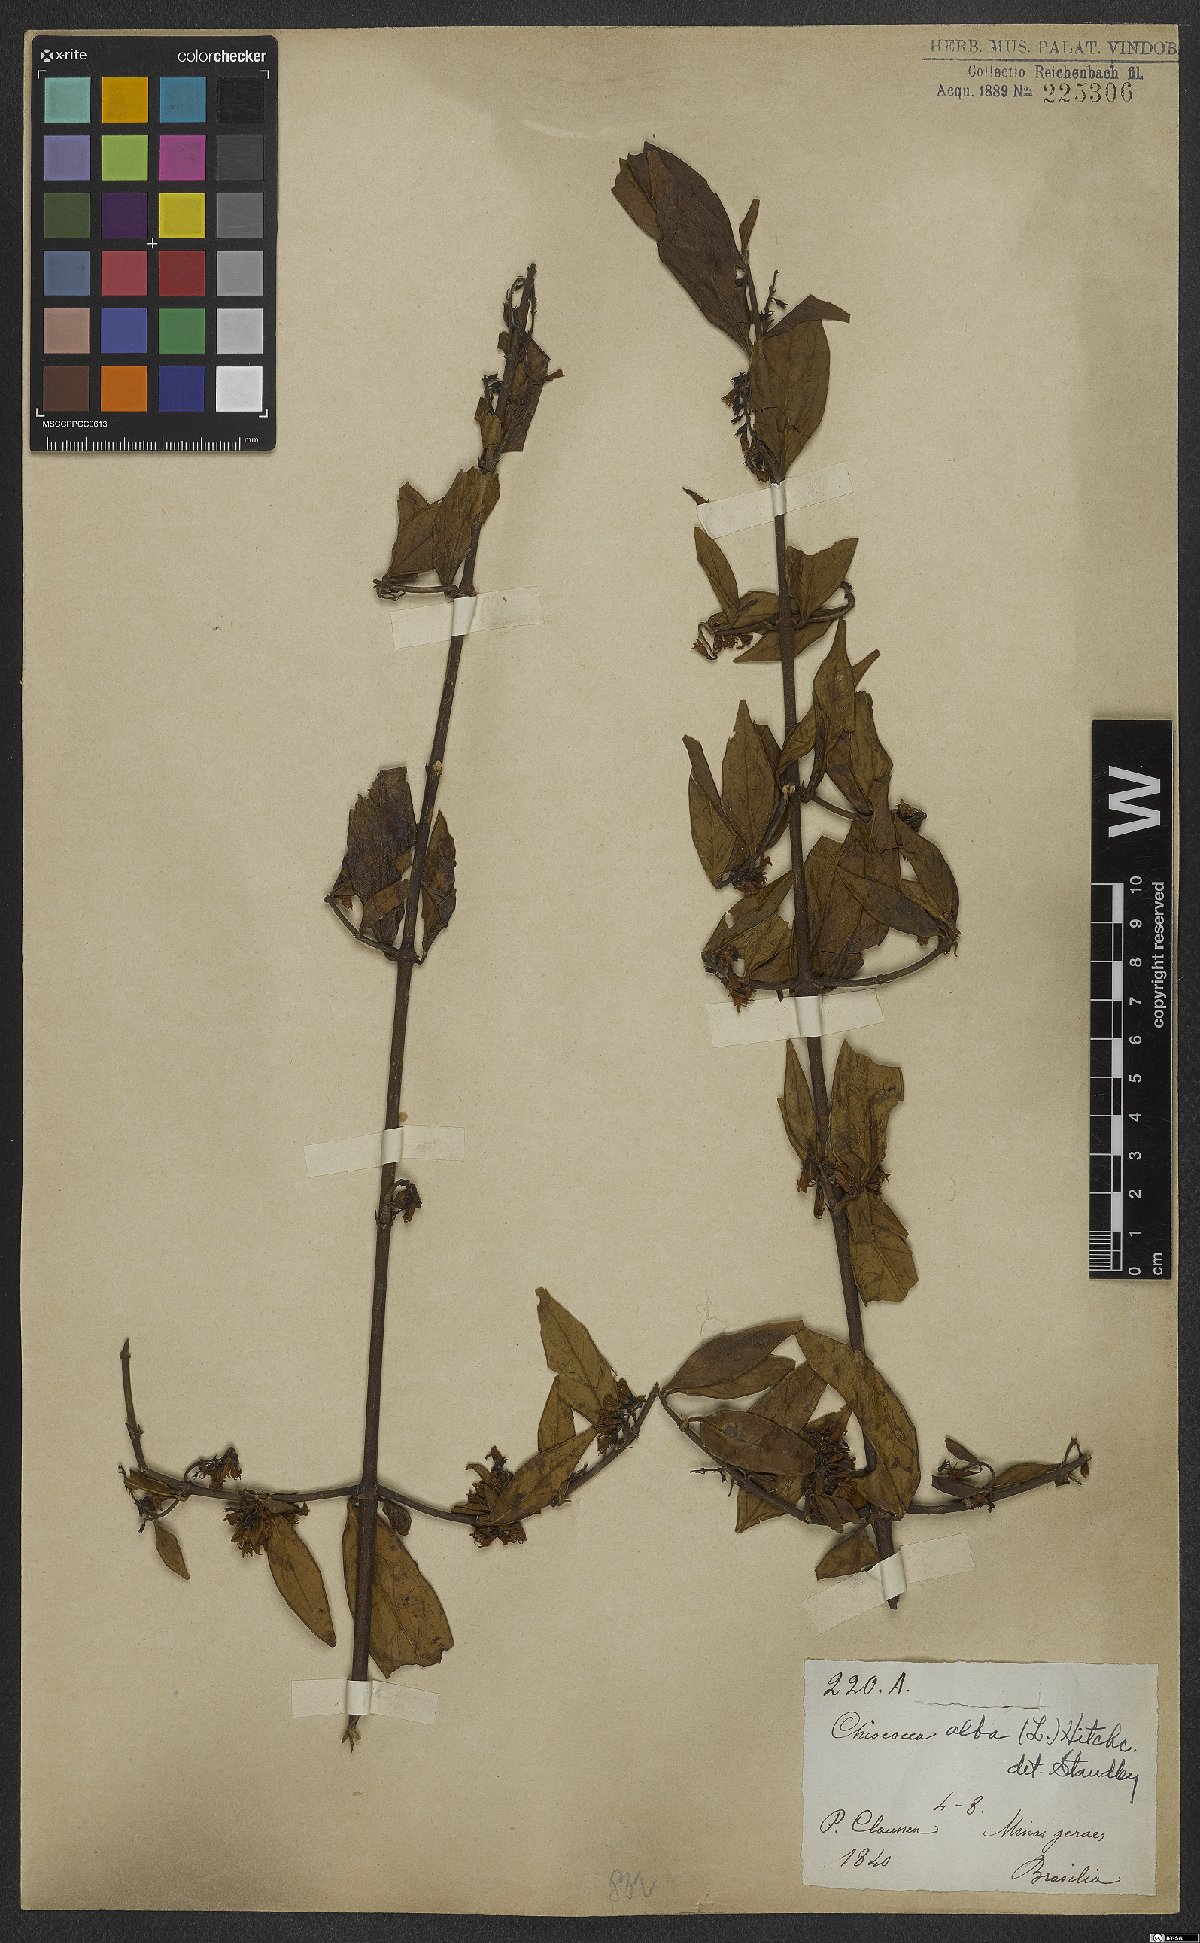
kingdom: Plantae
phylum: Tracheophyta
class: Magnoliopsida
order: Gentianales
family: Rubiaceae
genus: Chiococca
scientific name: Chiococca alba
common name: Snowberry
